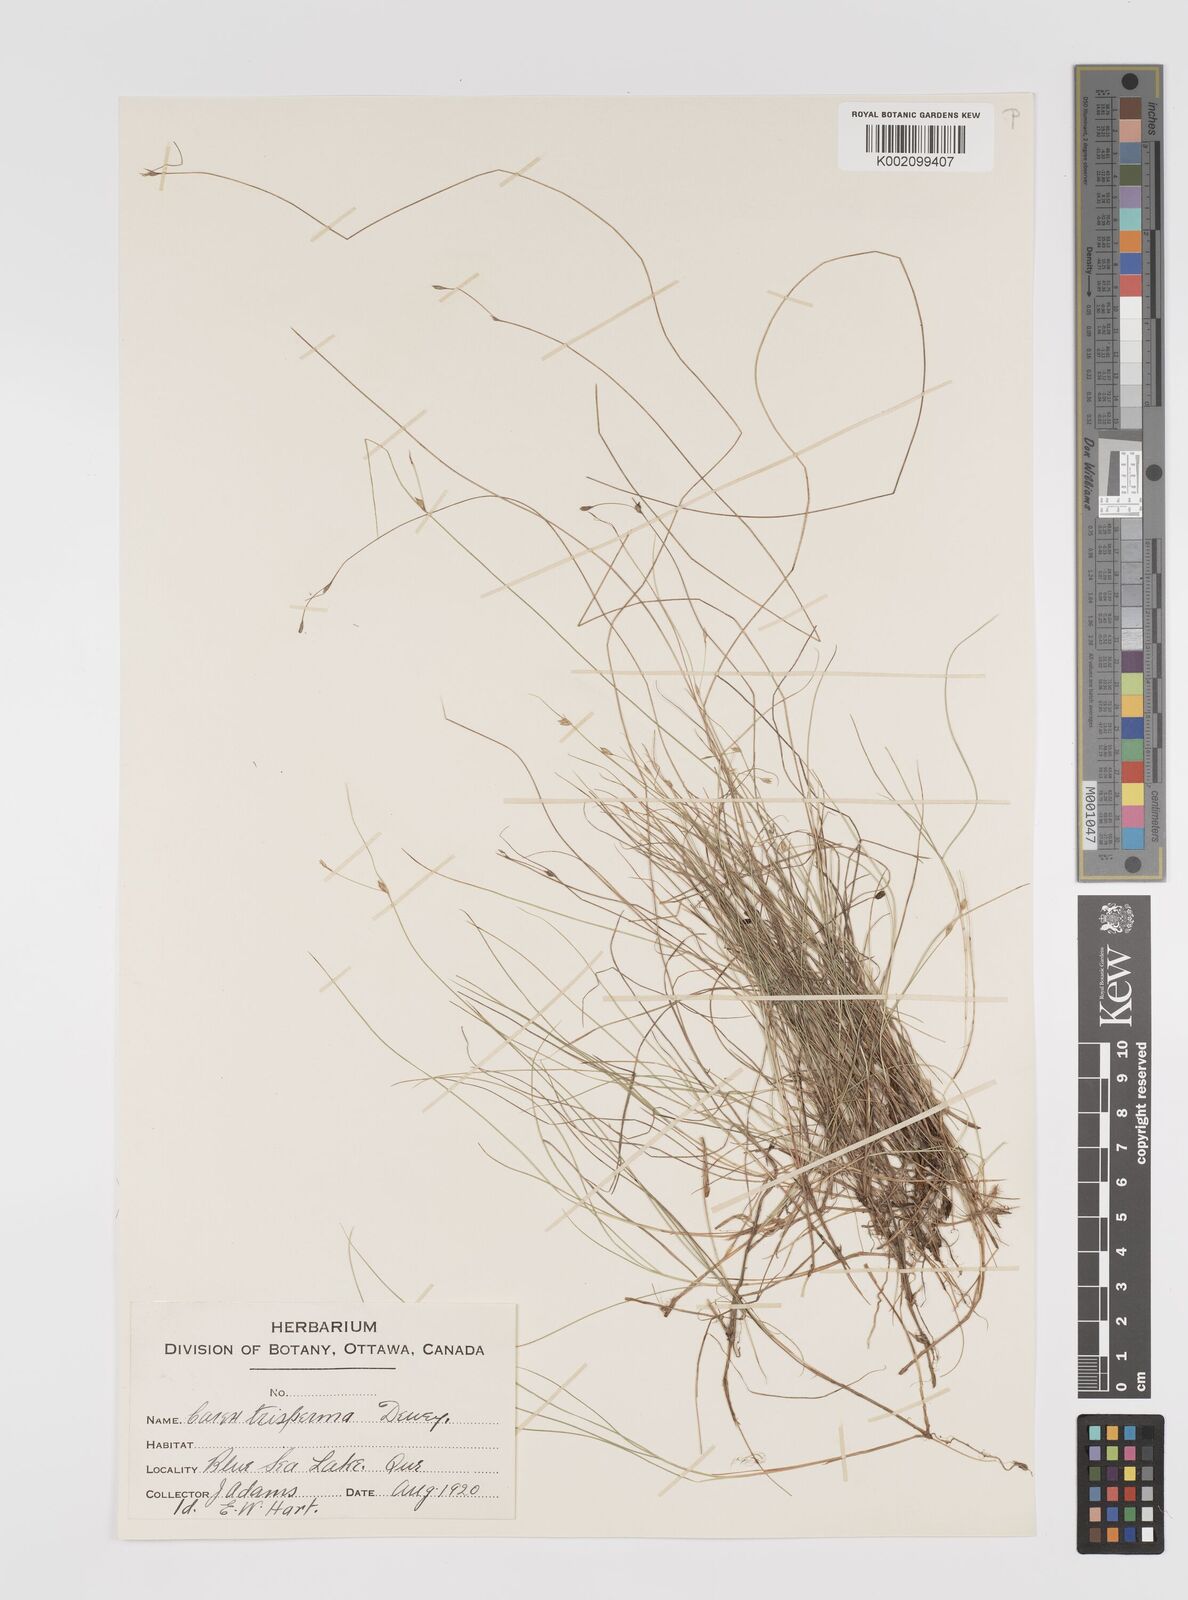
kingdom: Plantae
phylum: Tracheophyta
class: Liliopsida
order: Poales
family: Cyperaceae
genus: Carex
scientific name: Carex trisperma
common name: Three-seeded sedge
